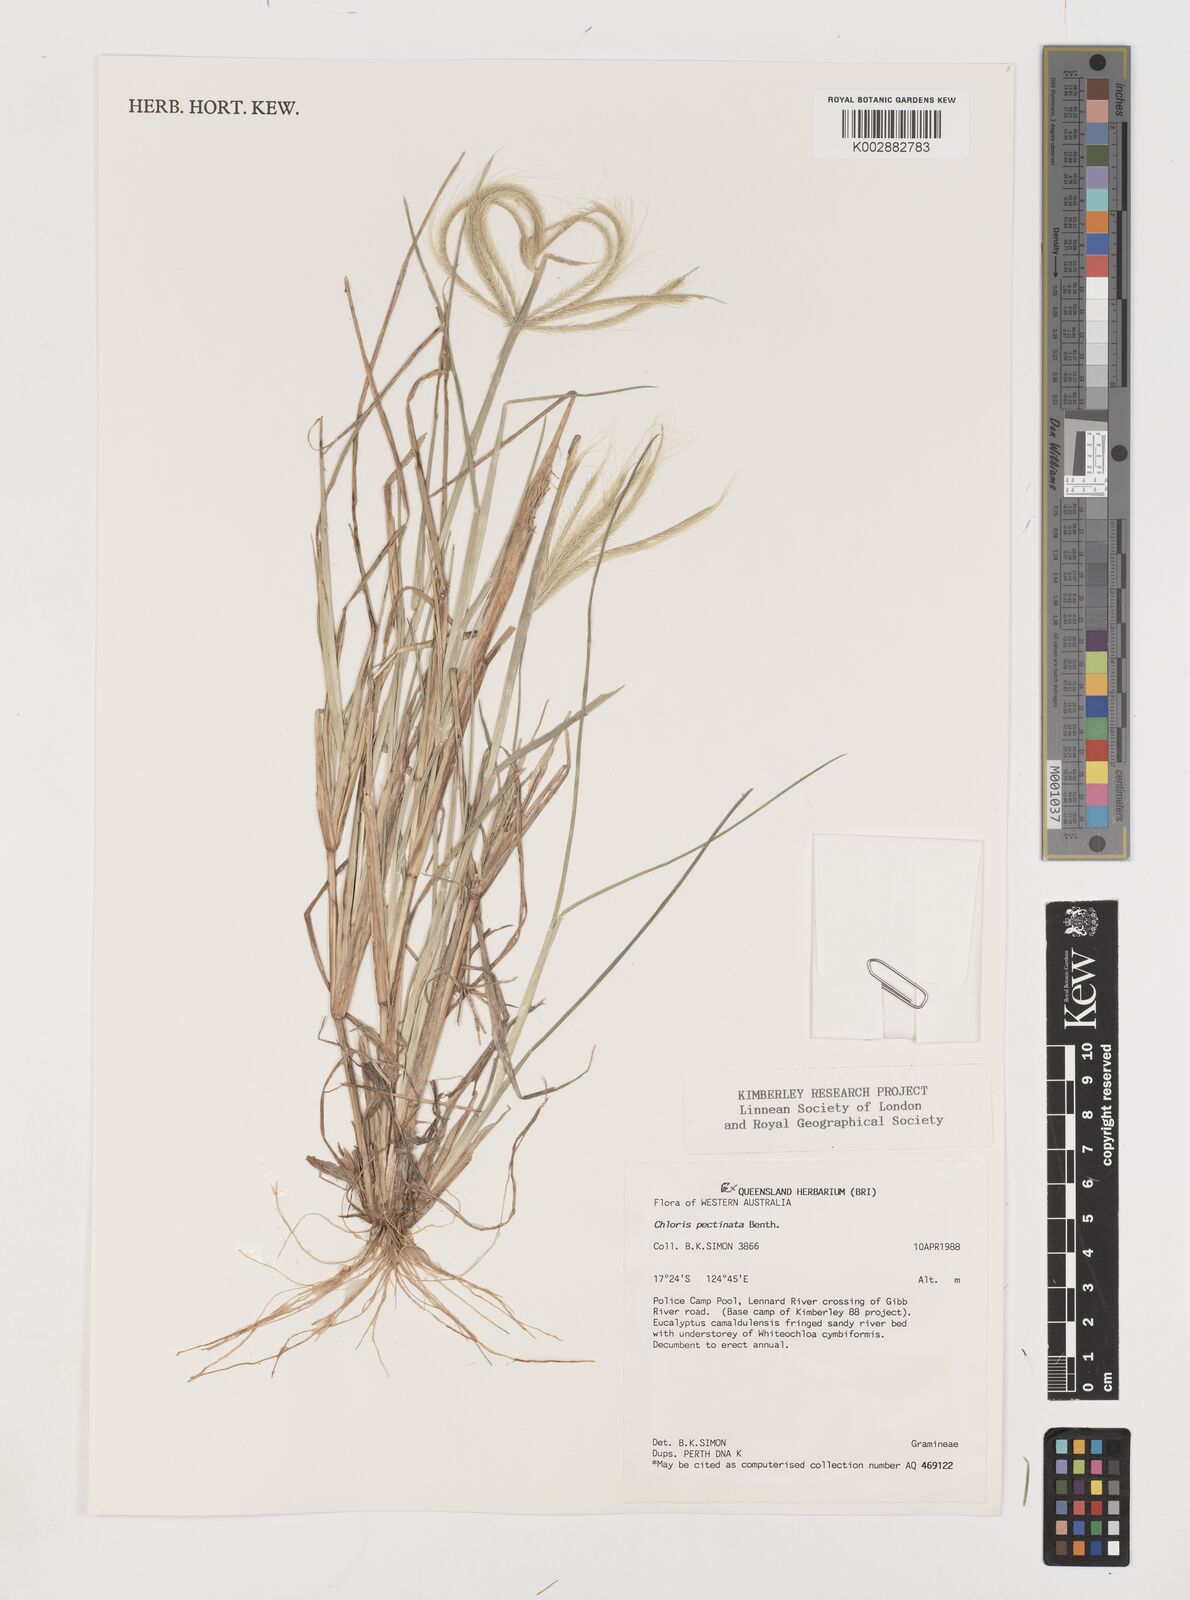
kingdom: Plantae
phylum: Tracheophyta
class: Liliopsida
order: Poales
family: Poaceae
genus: Chloris
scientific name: Chloris pectinata
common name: Comb windmill grass
